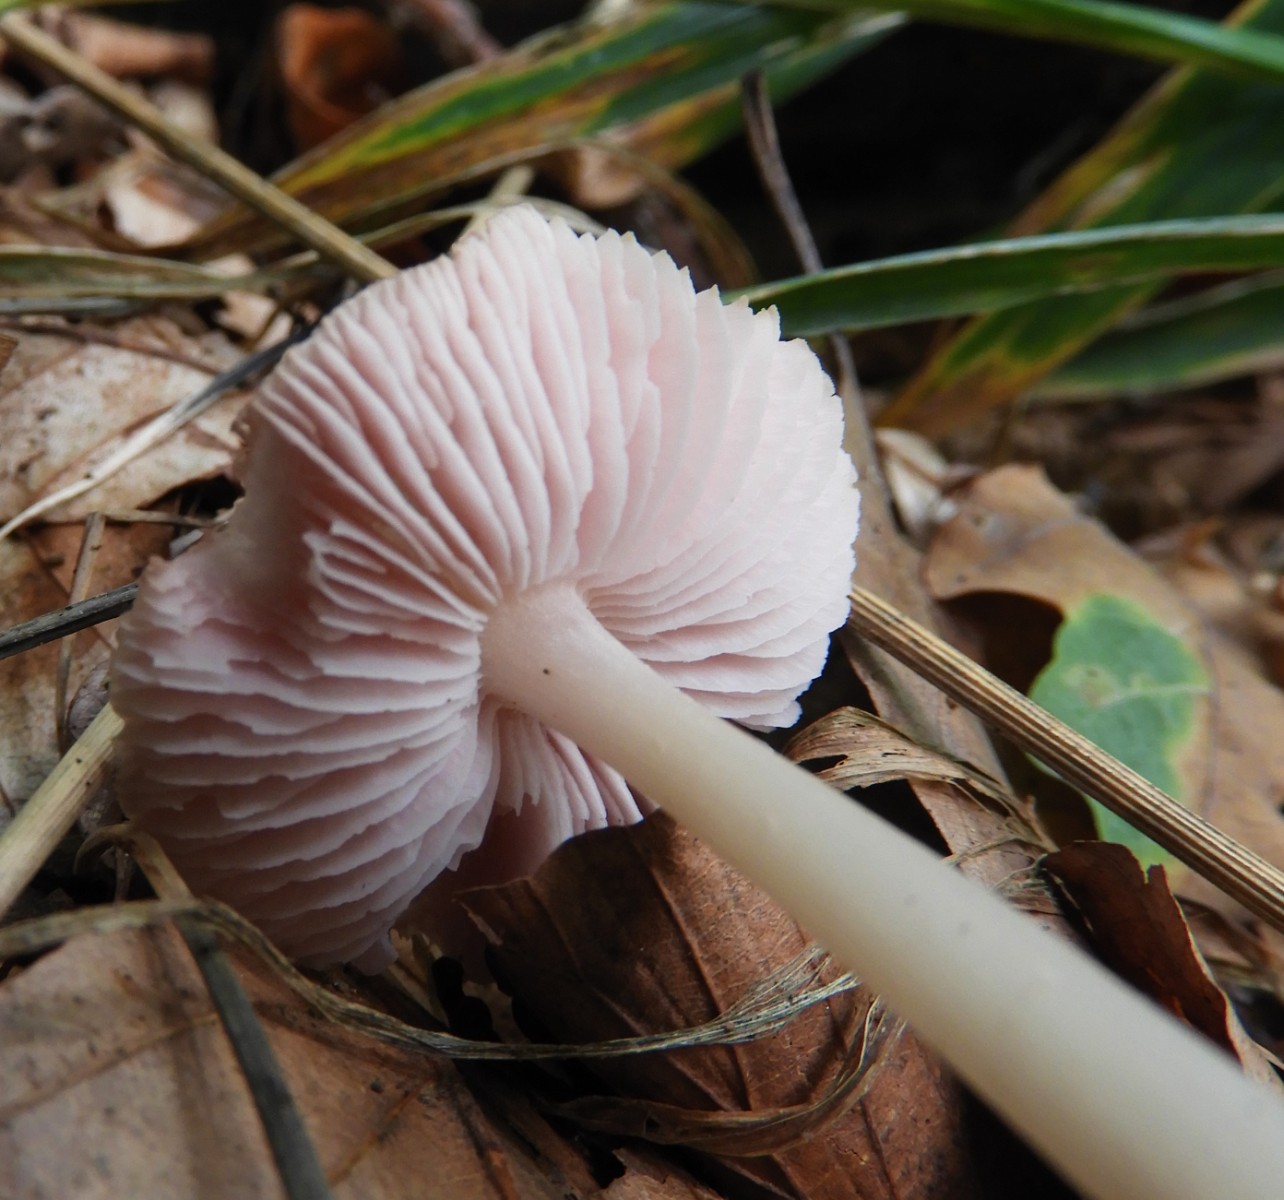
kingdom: Fungi
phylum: Basidiomycota
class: Agaricomycetes
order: Agaricales
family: Mycenaceae
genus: Mycena
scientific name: Mycena rosea
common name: rosa huesvamp
